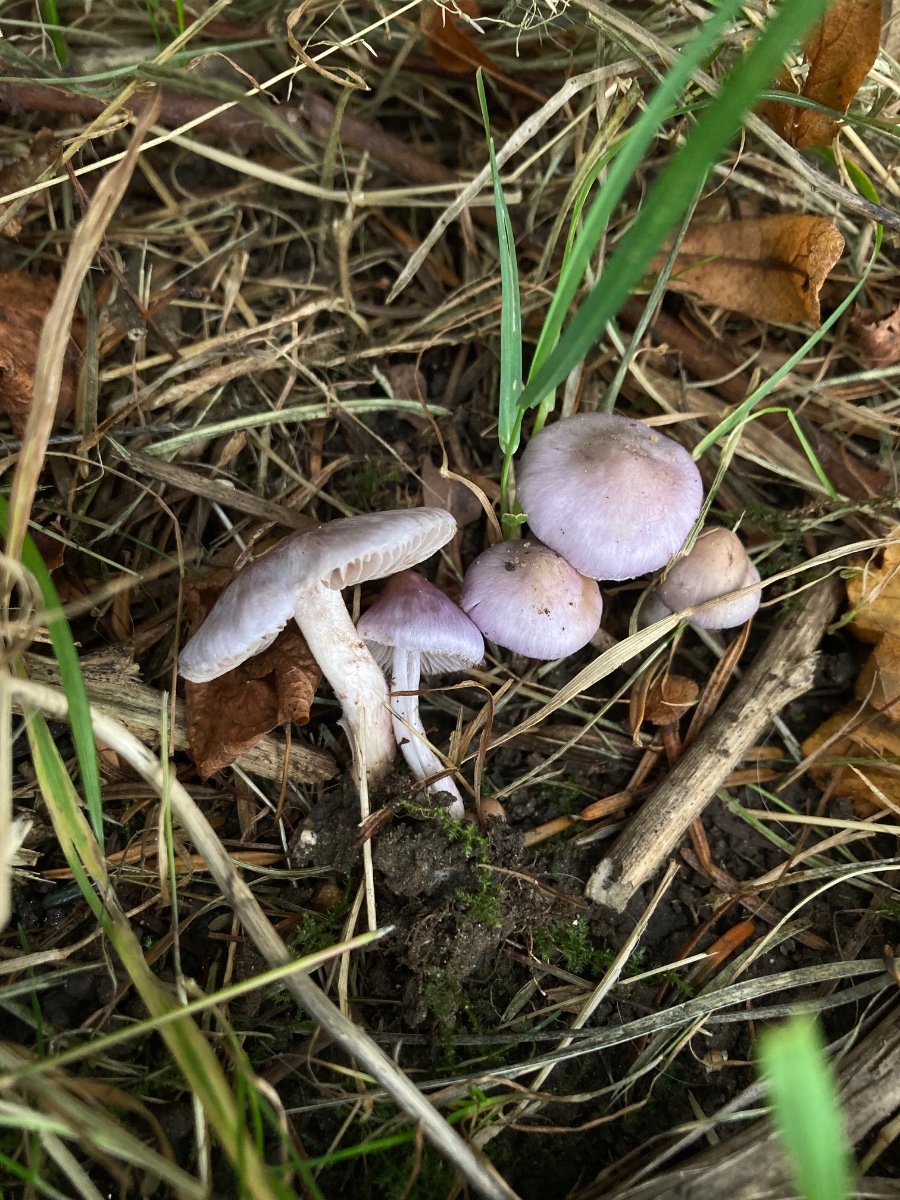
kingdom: Fungi
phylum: Basidiomycota
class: Agaricomycetes
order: Agaricales
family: Inocybaceae
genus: Inocybe
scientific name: Inocybe ionolepis
